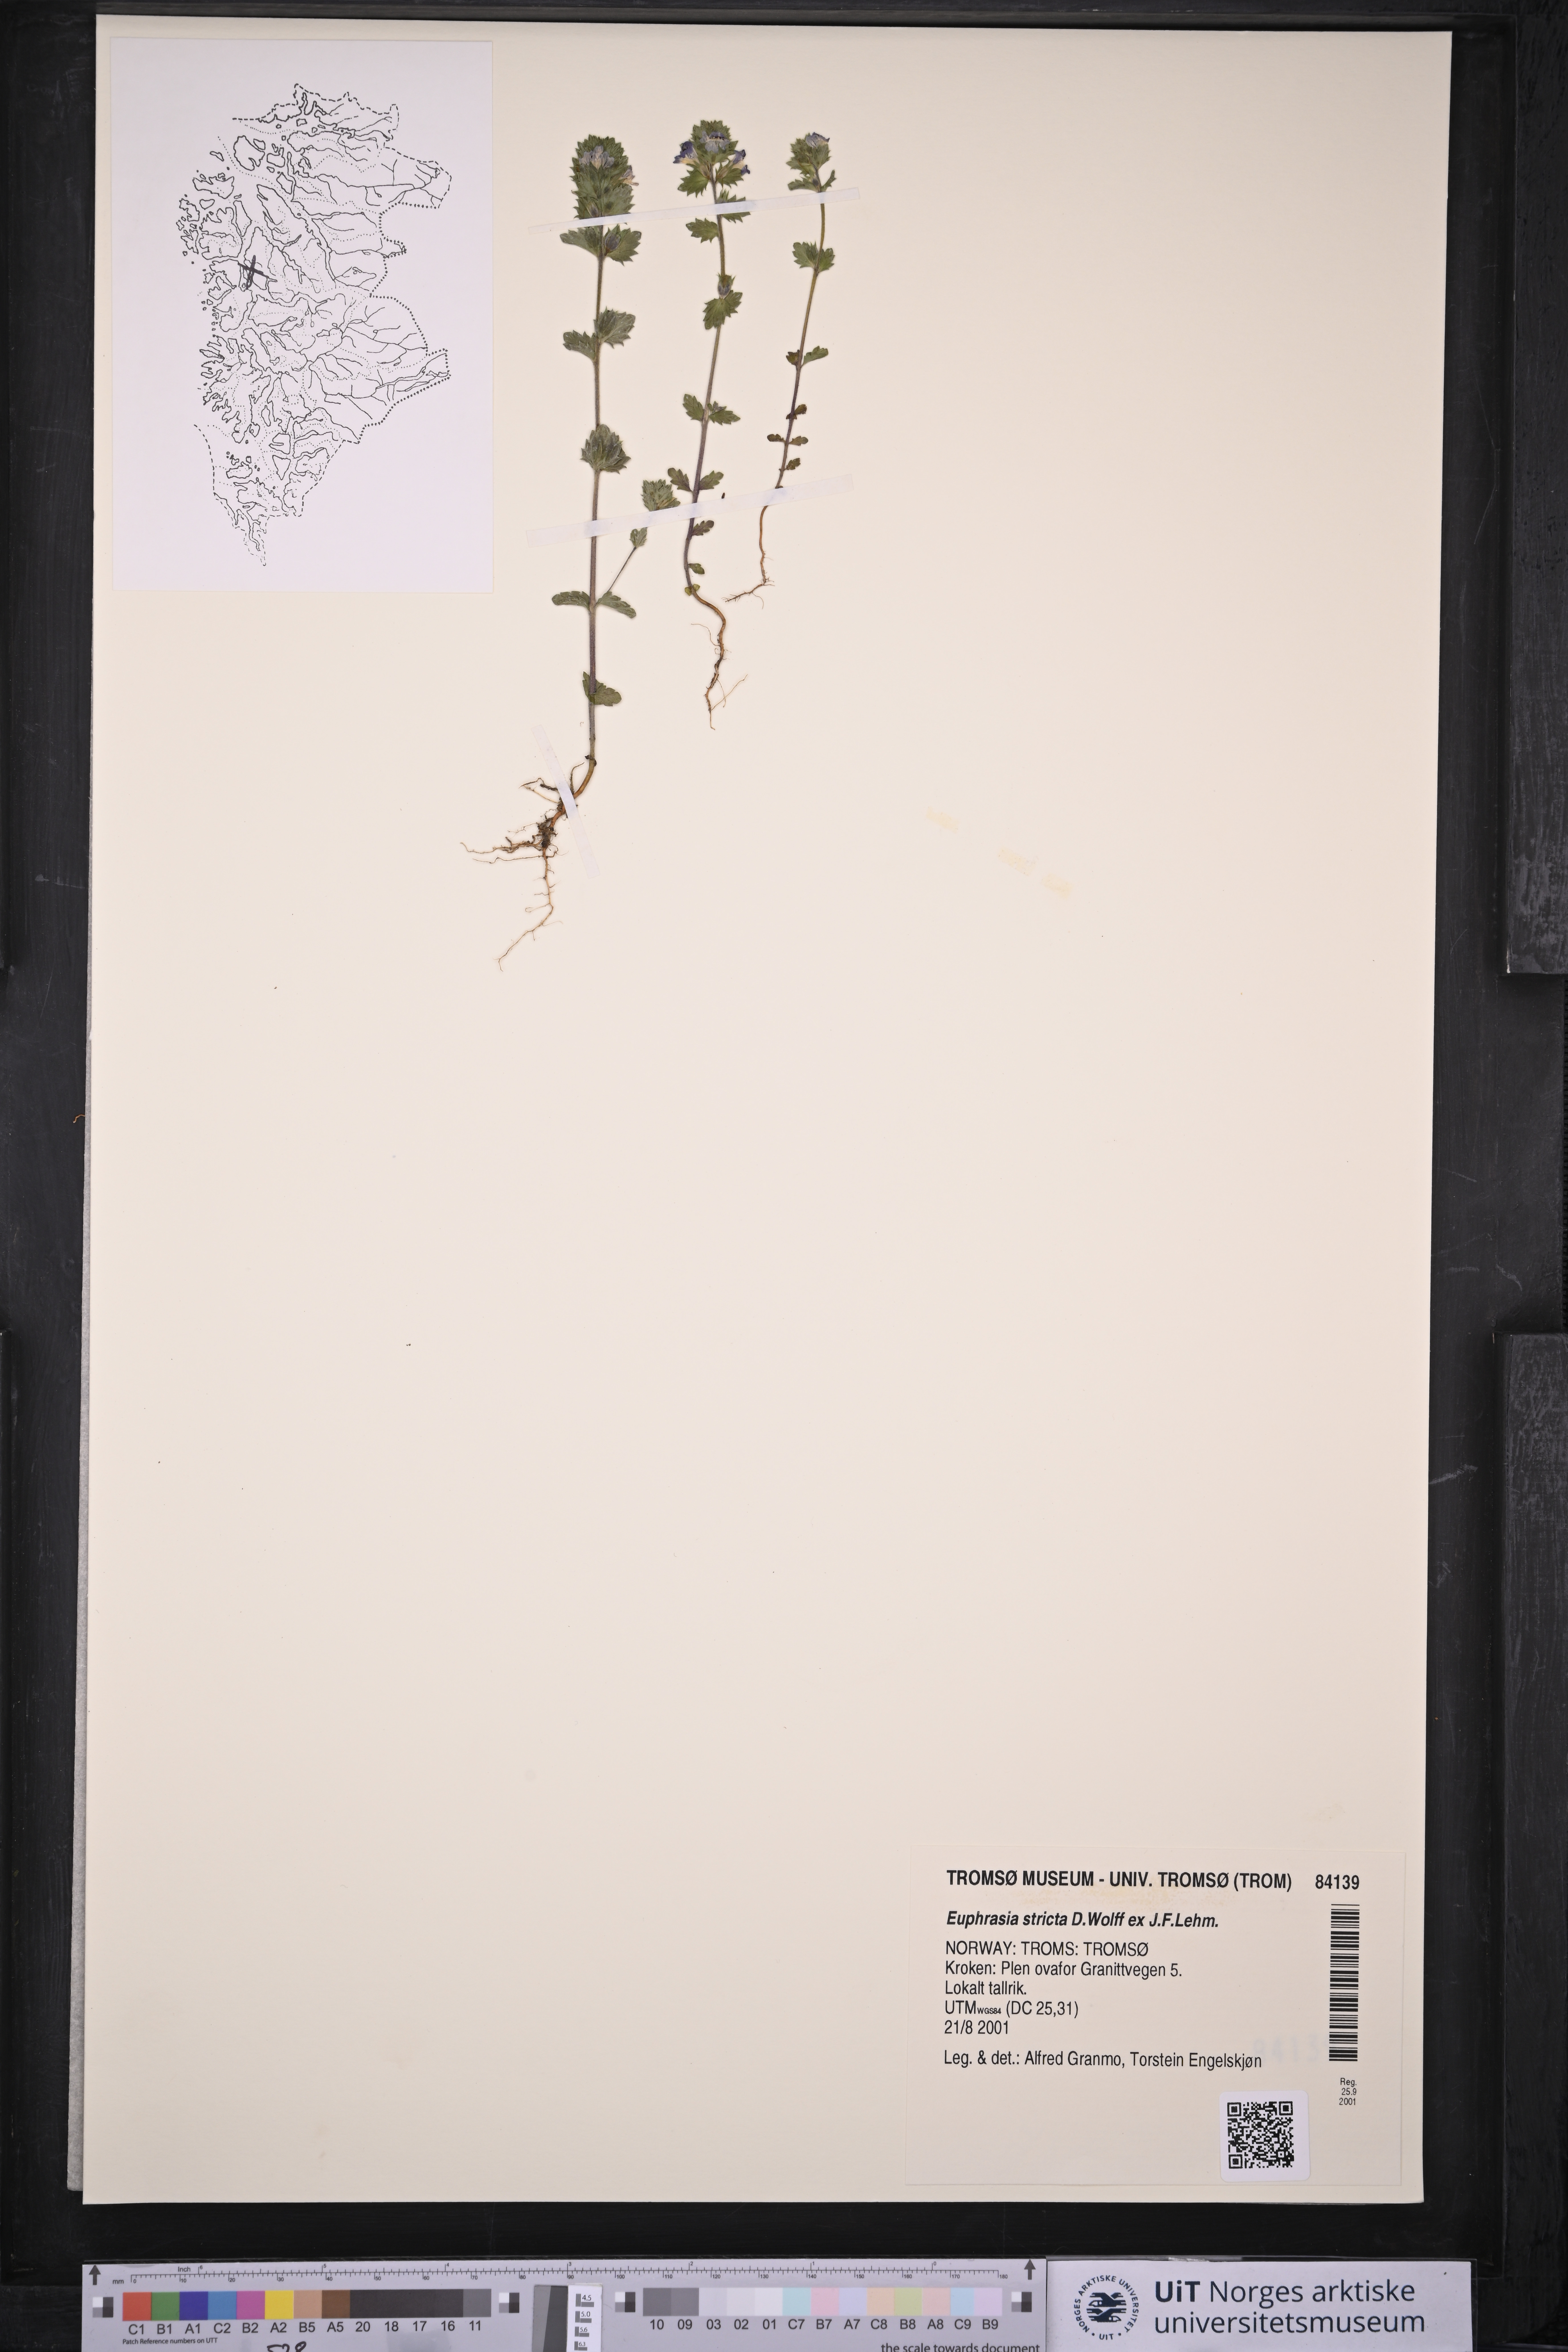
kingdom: Plantae
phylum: Tracheophyta
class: Magnoliopsida
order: Lamiales
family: Orobanchaceae
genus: Euphrasia
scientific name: Euphrasia stricta
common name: Drug eyebright
